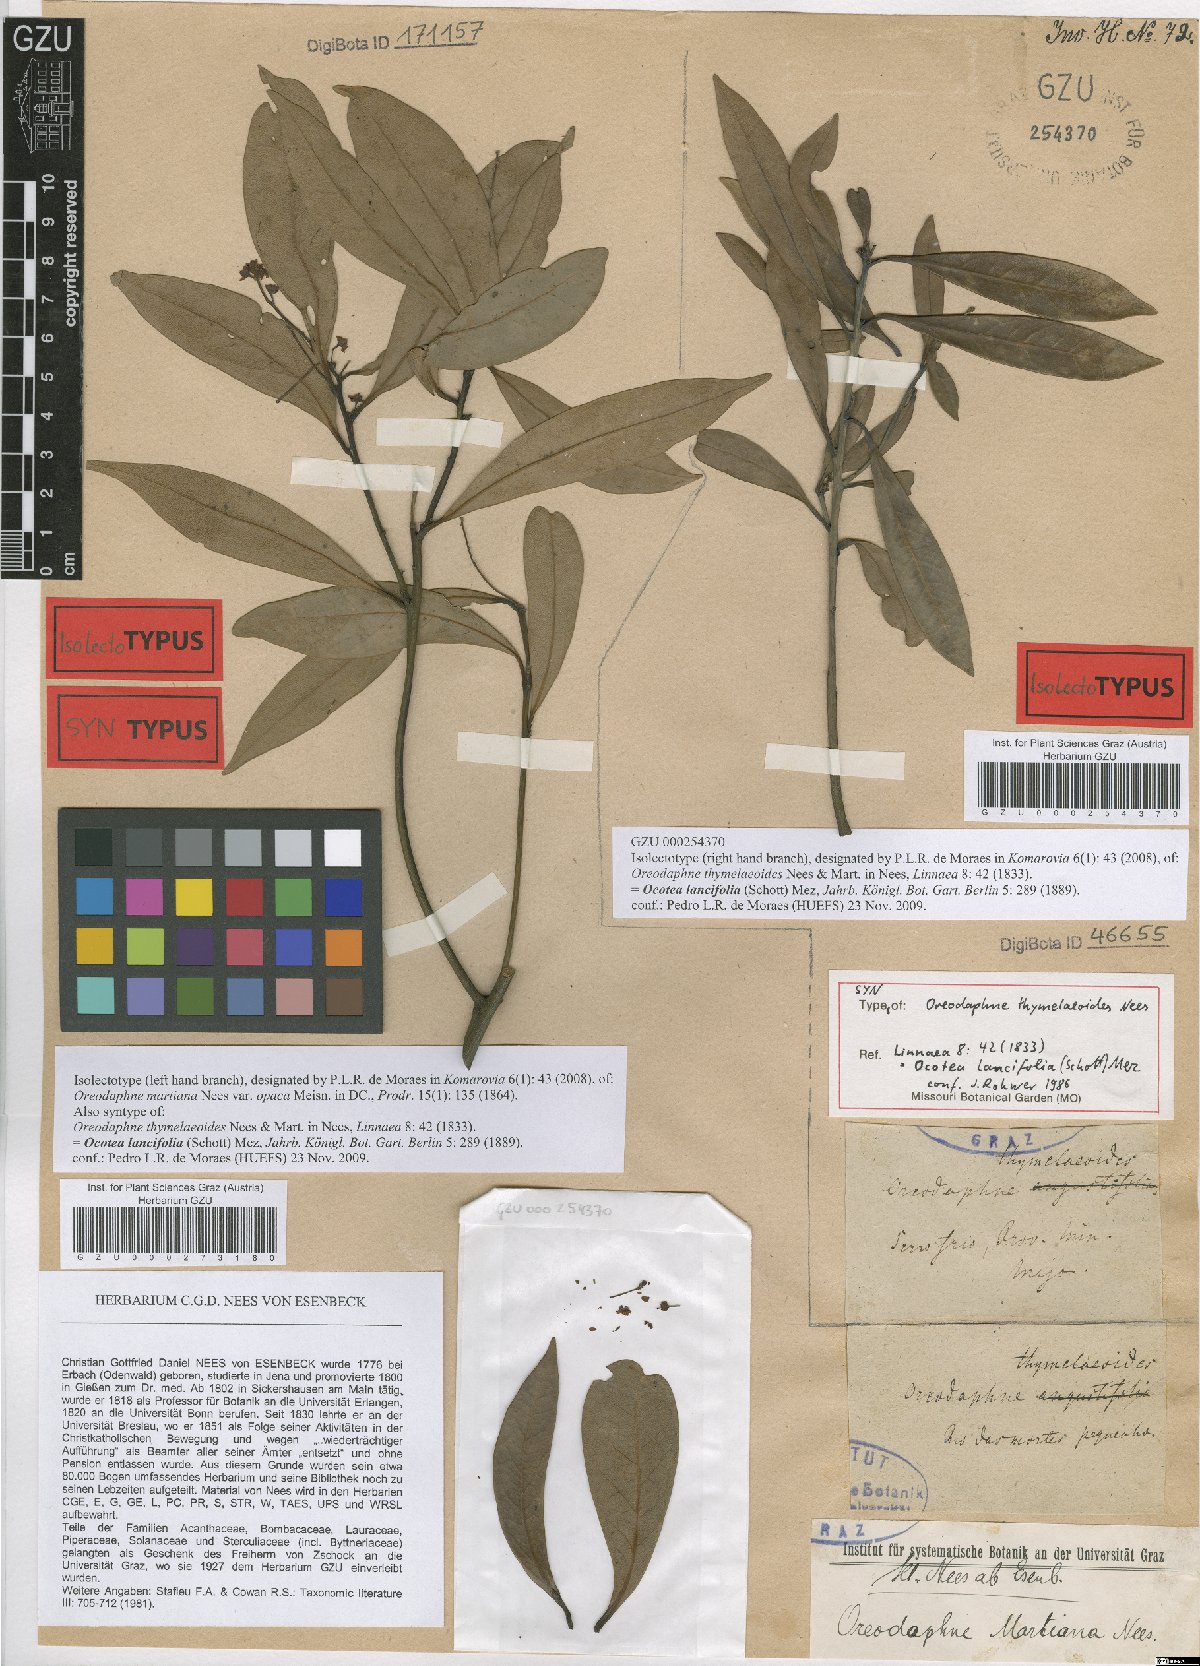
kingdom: Plantae
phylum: Tracheophyta
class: Magnoliopsida
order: Laurales
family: Lauraceae
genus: Ocotea
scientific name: Ocotea puberula
